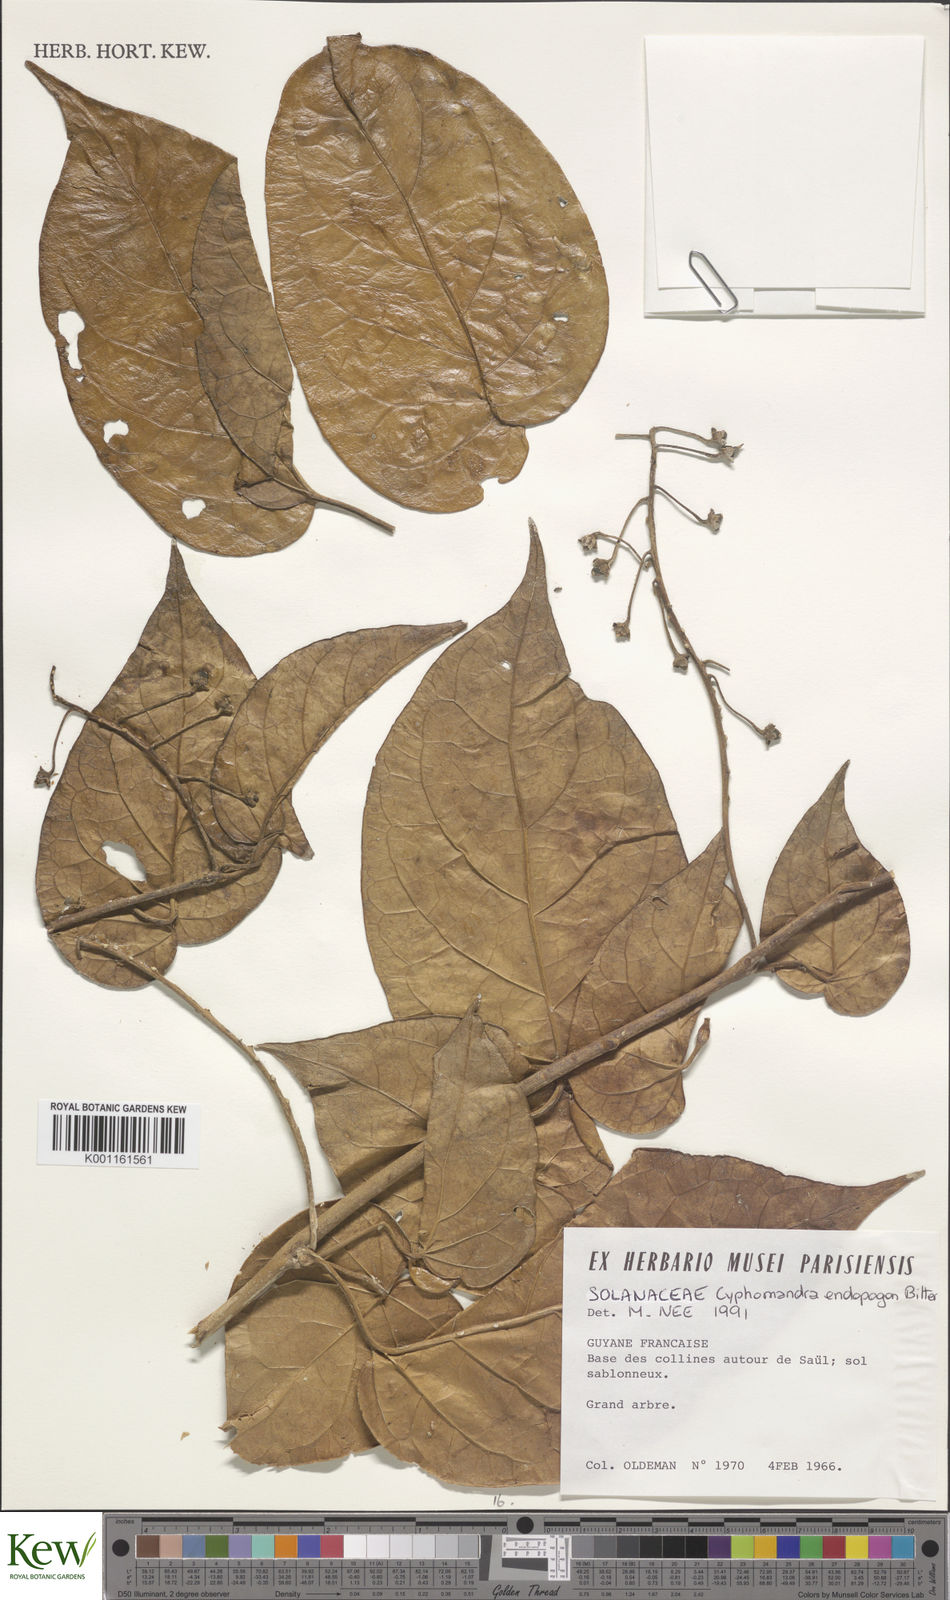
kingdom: Plantae
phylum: Tracheophyta
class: Magnoliopsida
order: Solanales
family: Solanaceae
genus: Solanum
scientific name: Solanum endopogon
